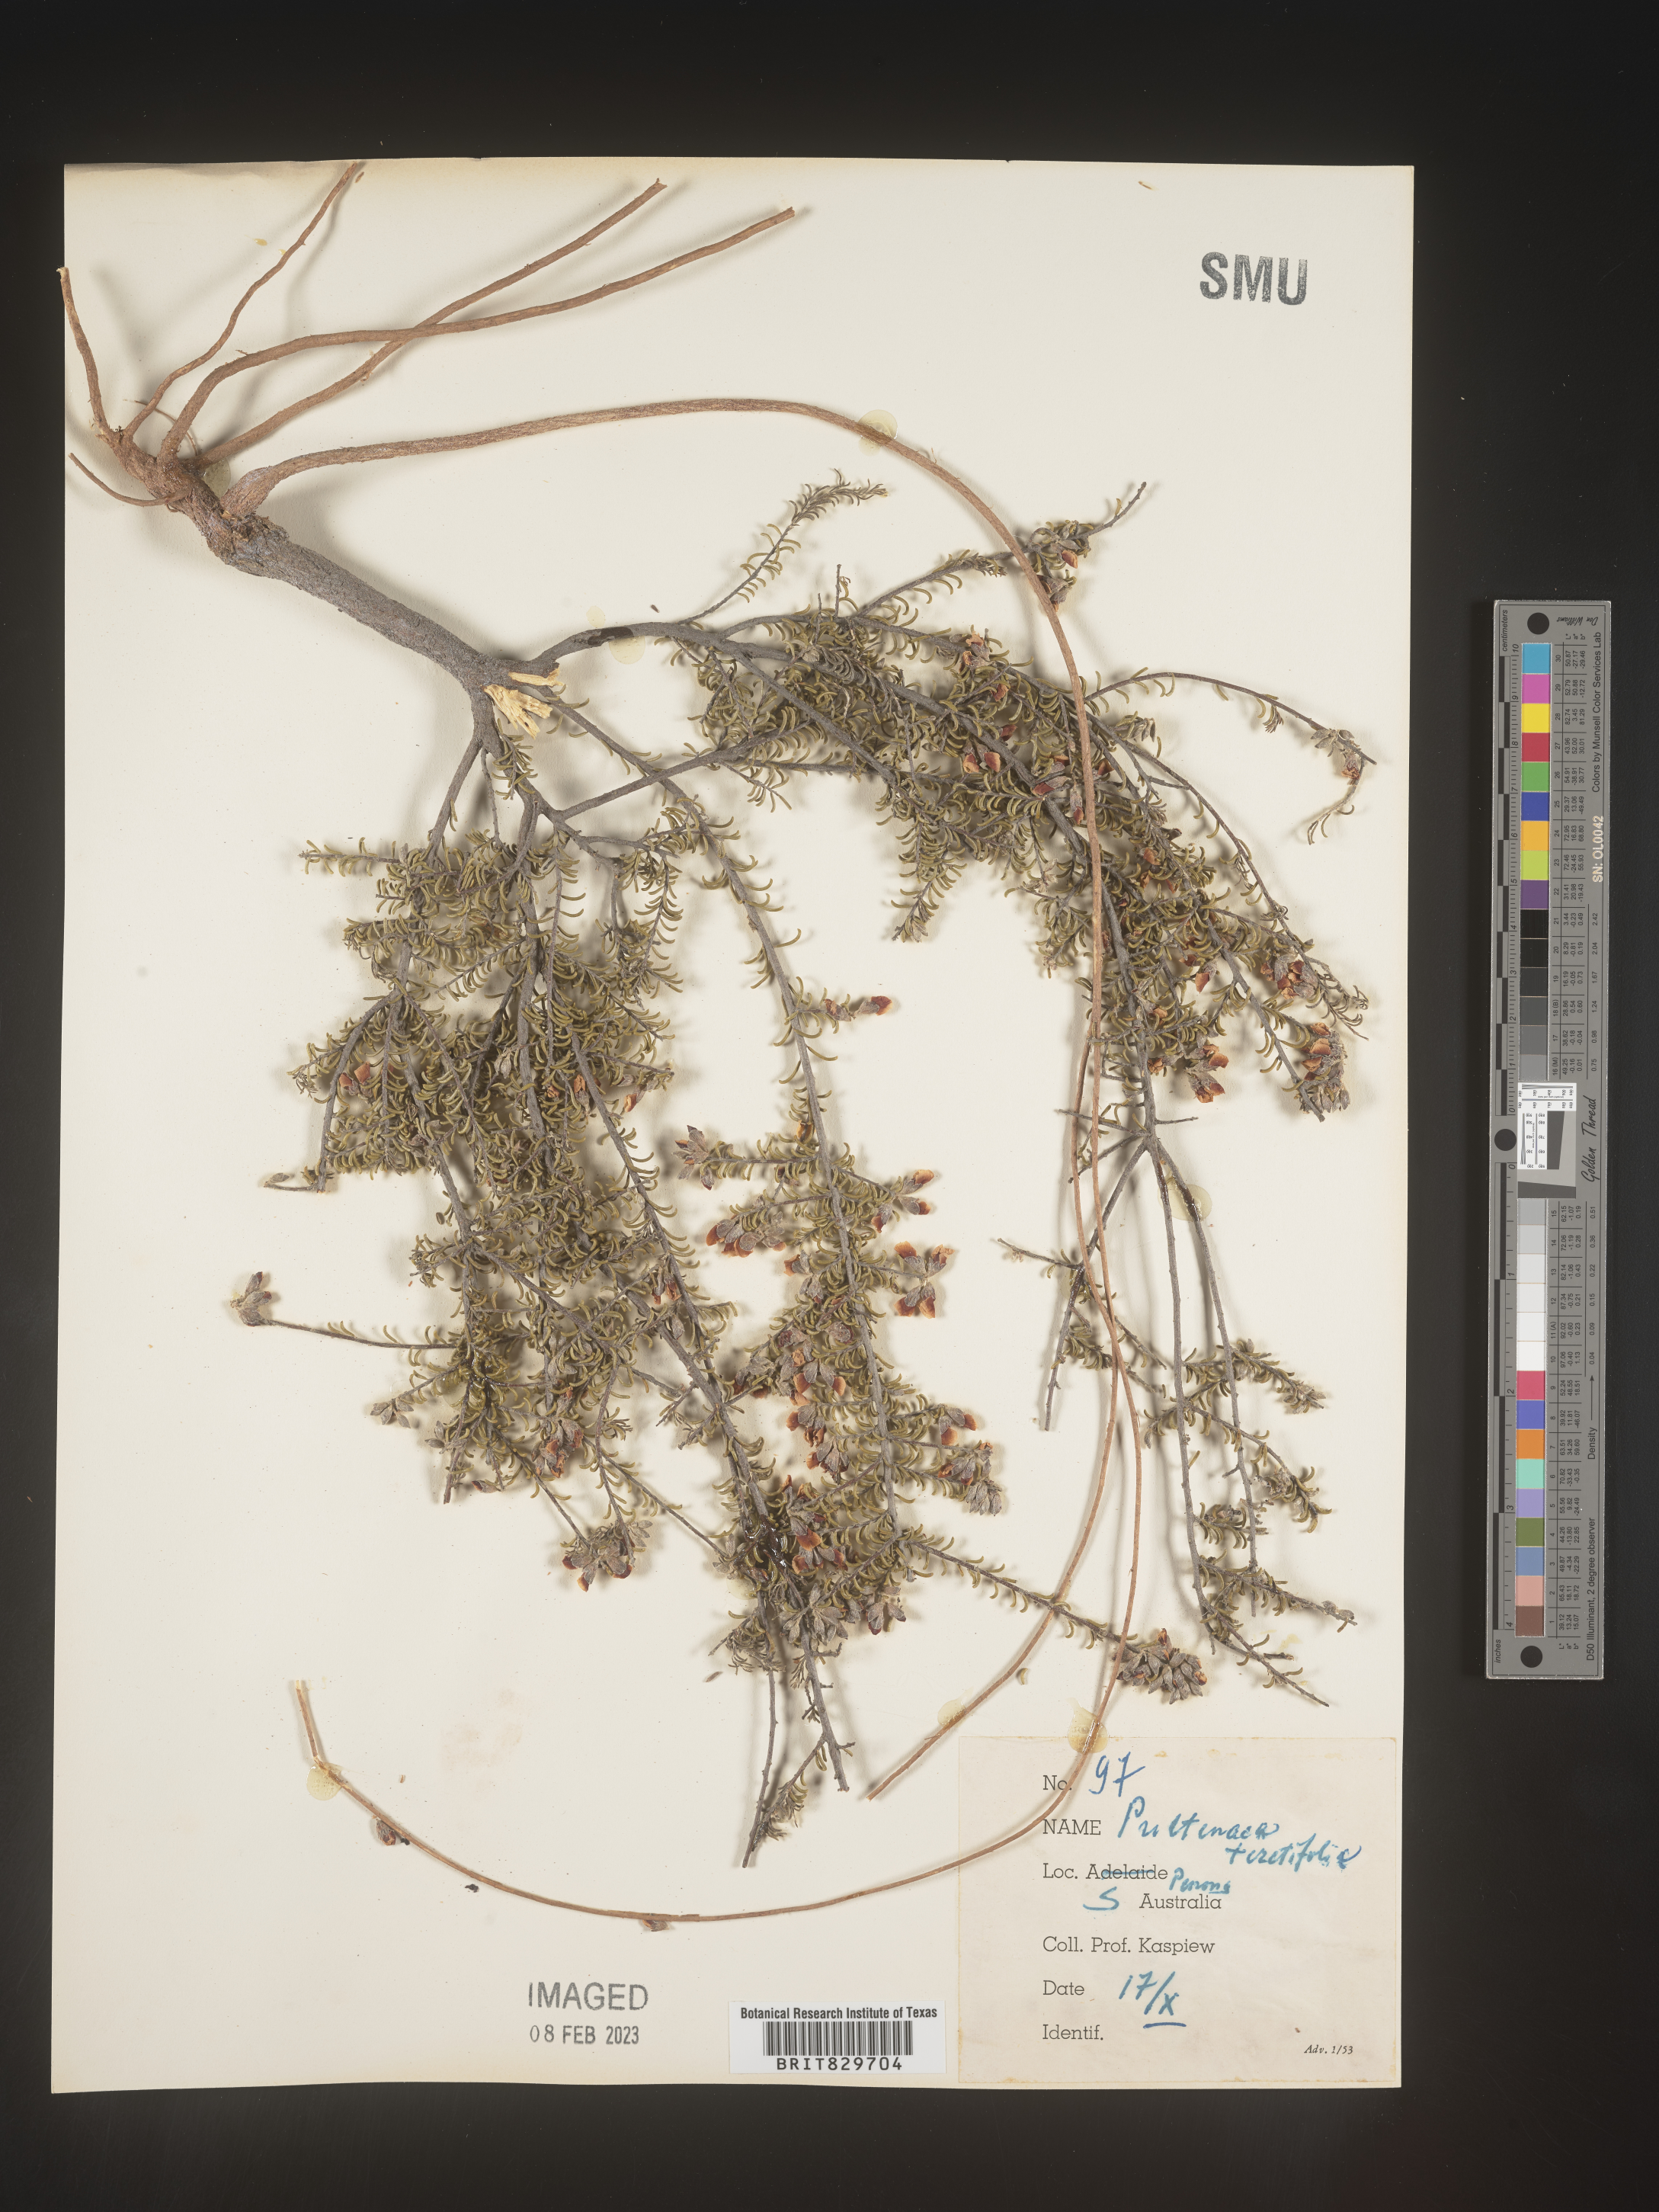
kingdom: Plantae
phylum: Tracheophyta
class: Magnoliopsida
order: Fabales
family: Fabaceae
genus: Pultenaea
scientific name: Pultenaea
